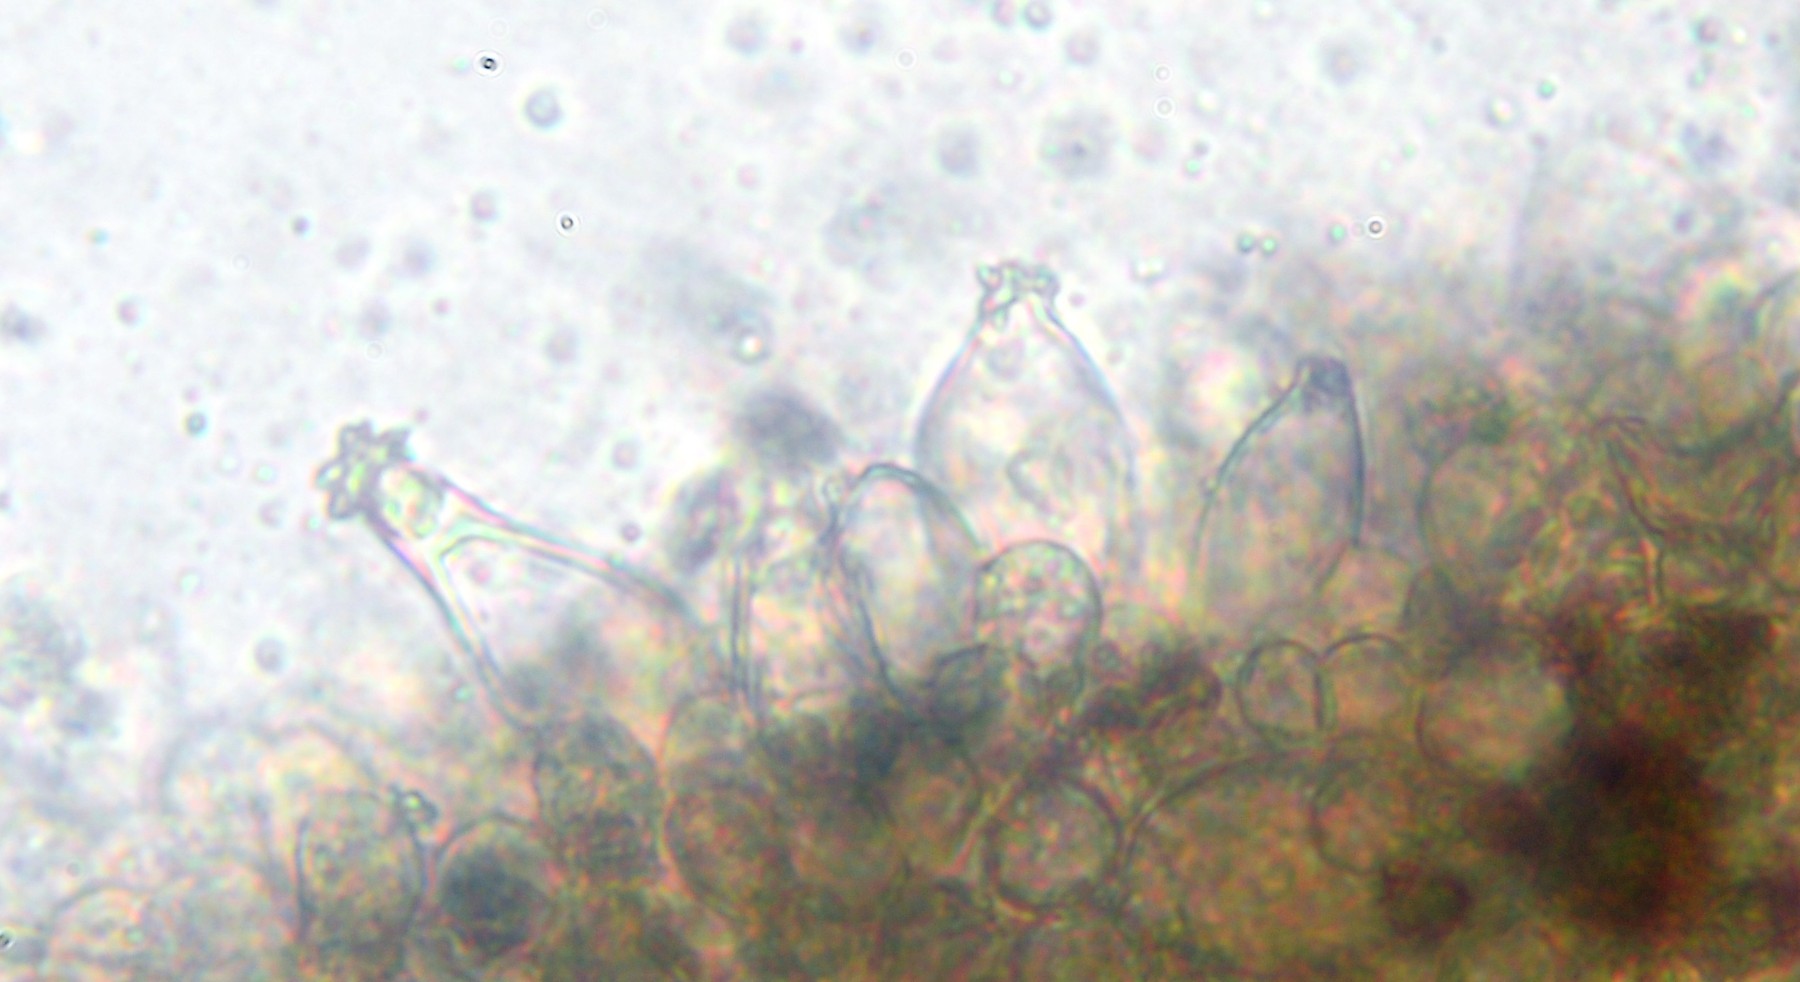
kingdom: Fungi
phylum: Basidiomycota
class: Agaricomycetes
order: Agaricales
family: Inocybaceae
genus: Inocybe
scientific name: Inocybe asterospora
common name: stjernesporet trævlhat
